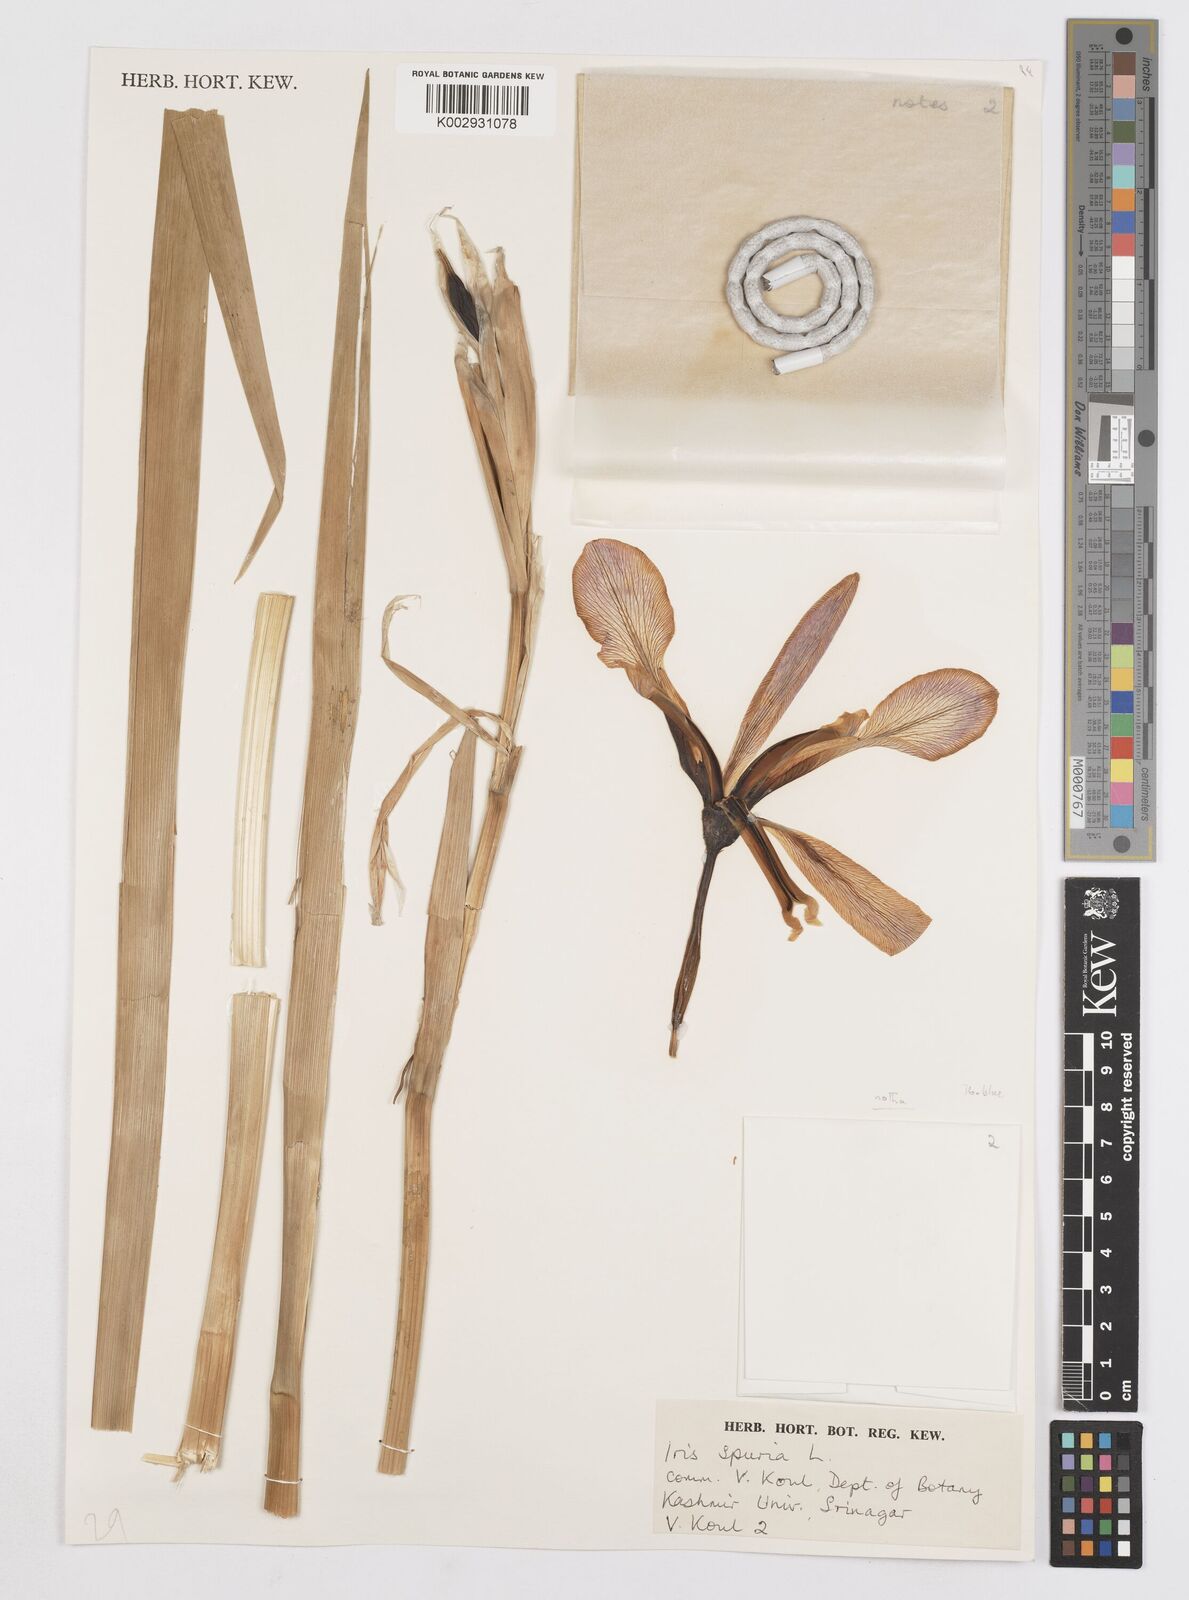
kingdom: Plantae
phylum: Tracheophyta
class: Liliopsida
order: Asparagales
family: Iridaceae
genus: Iris
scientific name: Iris spuria
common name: Blue iris
